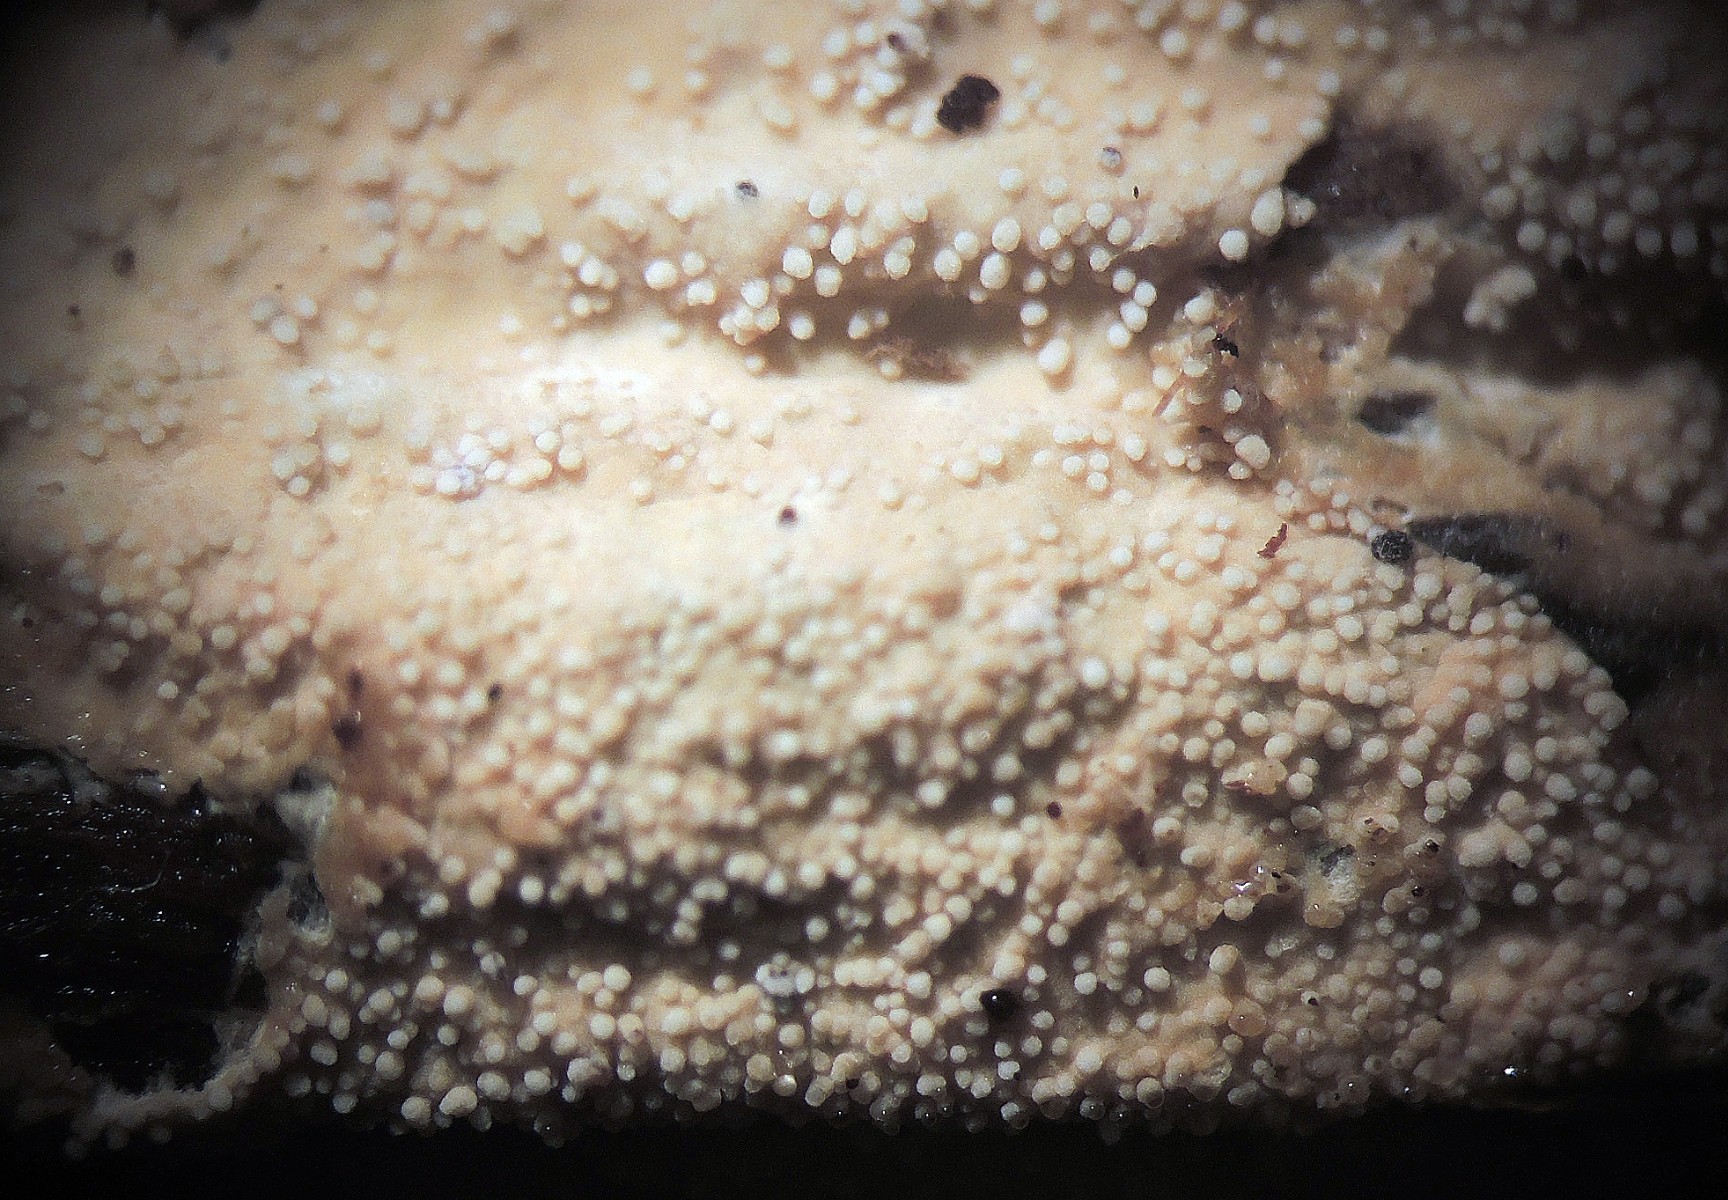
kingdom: Fungi
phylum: Basidiomycota
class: Agaricomycetes
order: Russulales
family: Xenasmataceae
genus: Xenasmatella
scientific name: Xenasmatella alnicola
